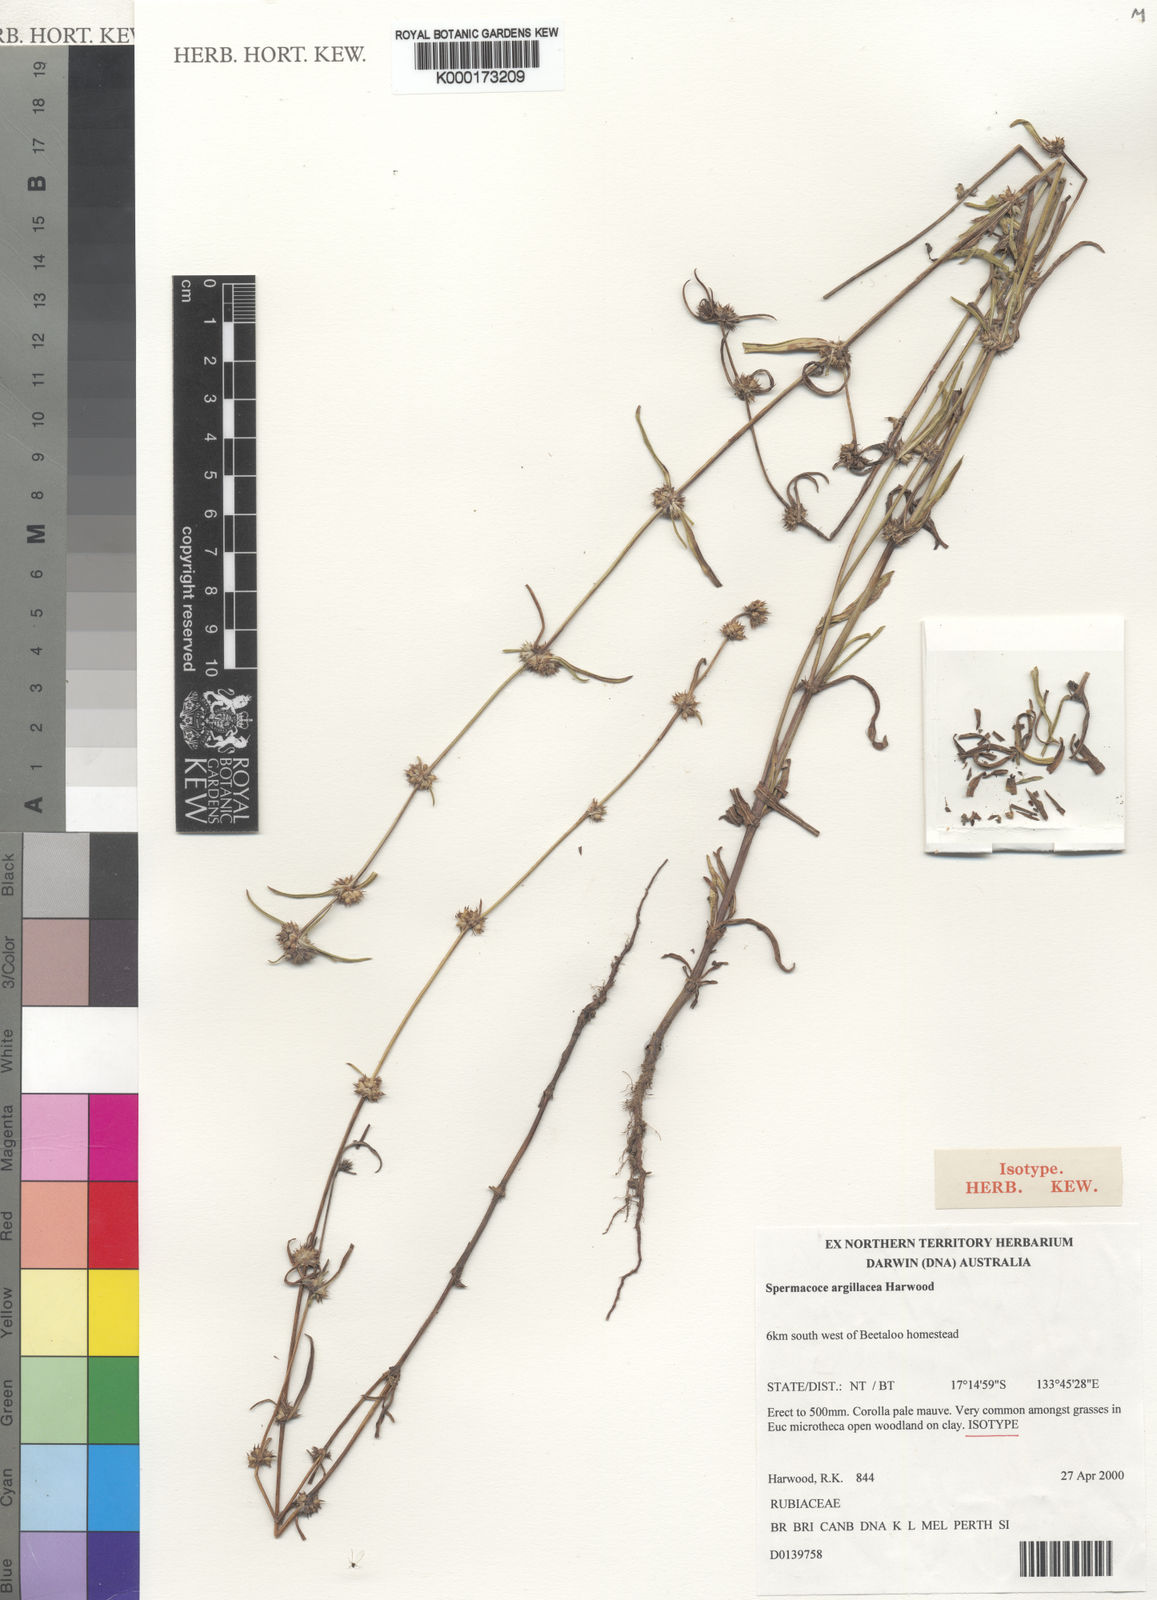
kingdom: Plantae
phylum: Tracheophyta
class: Magnoliopsida
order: Gentianales
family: Rubiaceae
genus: Spermacoce
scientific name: Spermacoce argillacea
